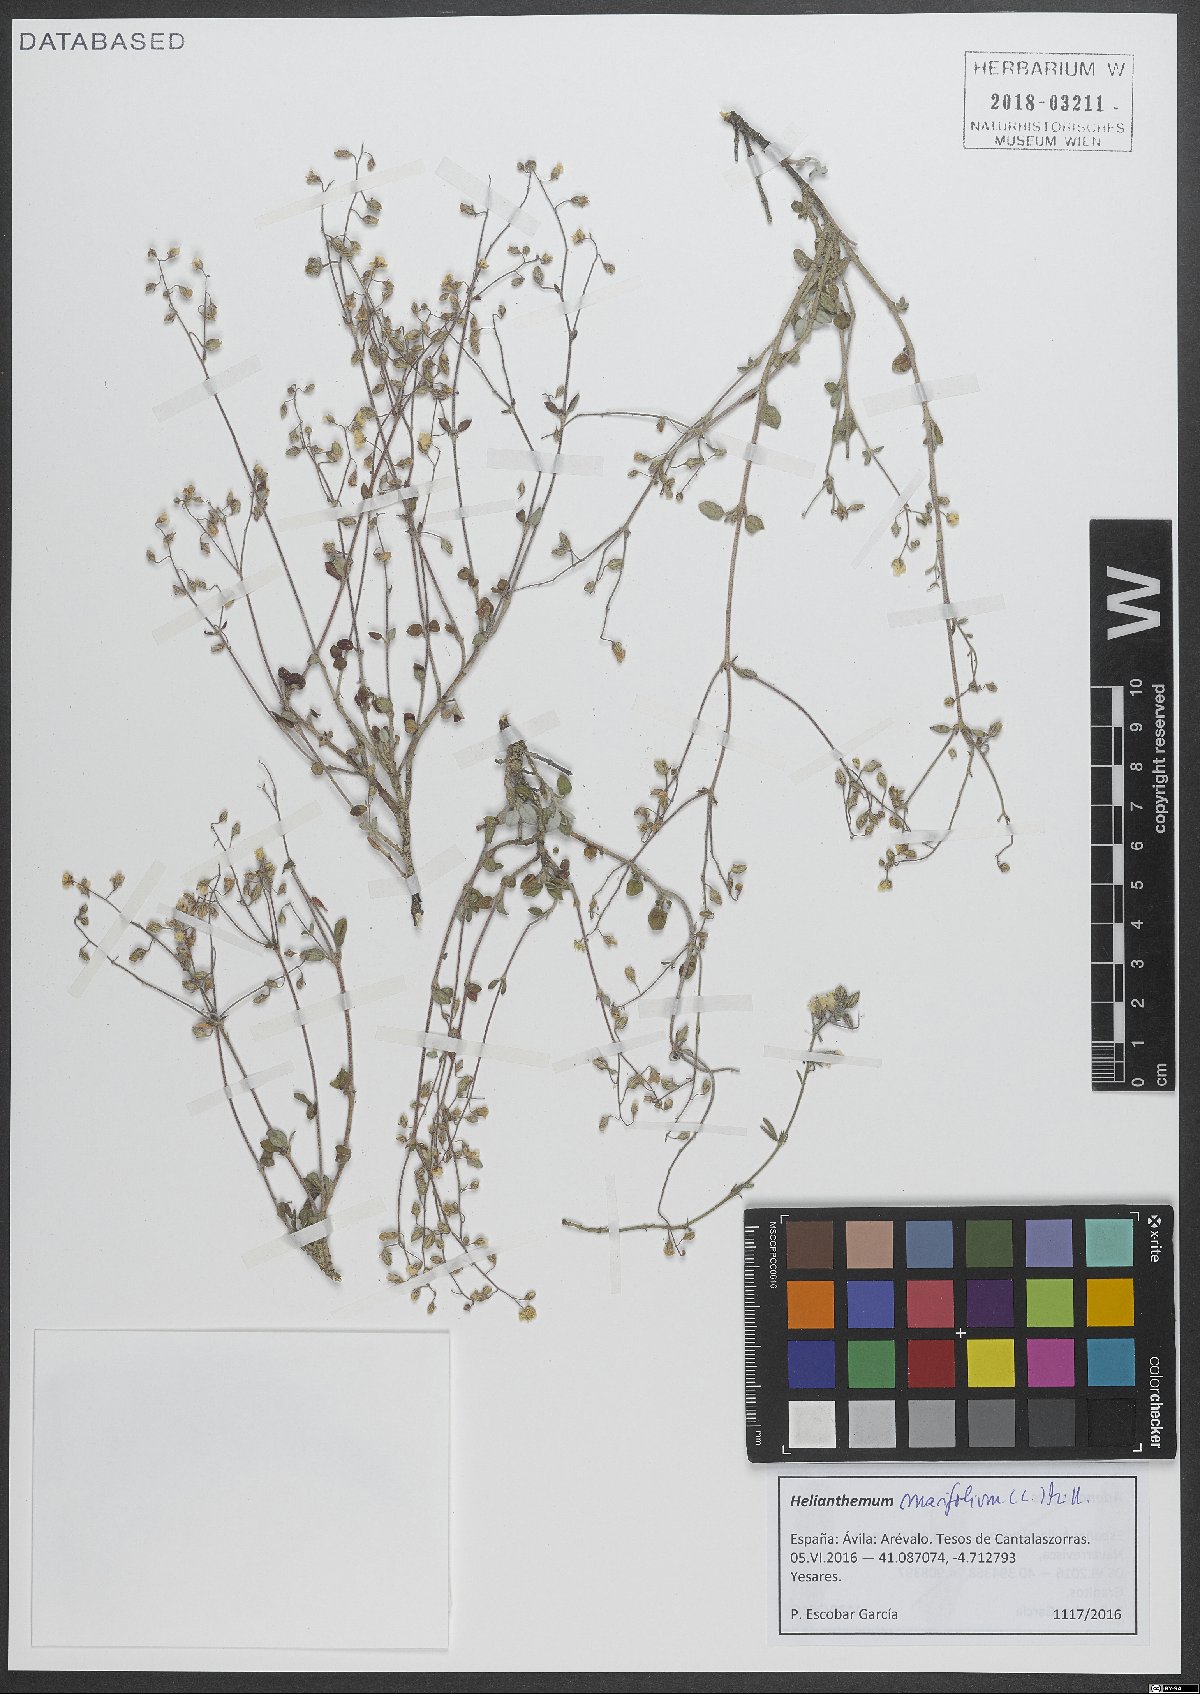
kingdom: Plantae
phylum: Tracheophyta
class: Magnoliopsida
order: Malvales
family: Cistaceae
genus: Helianthemum
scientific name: Helianthemum marifolium
